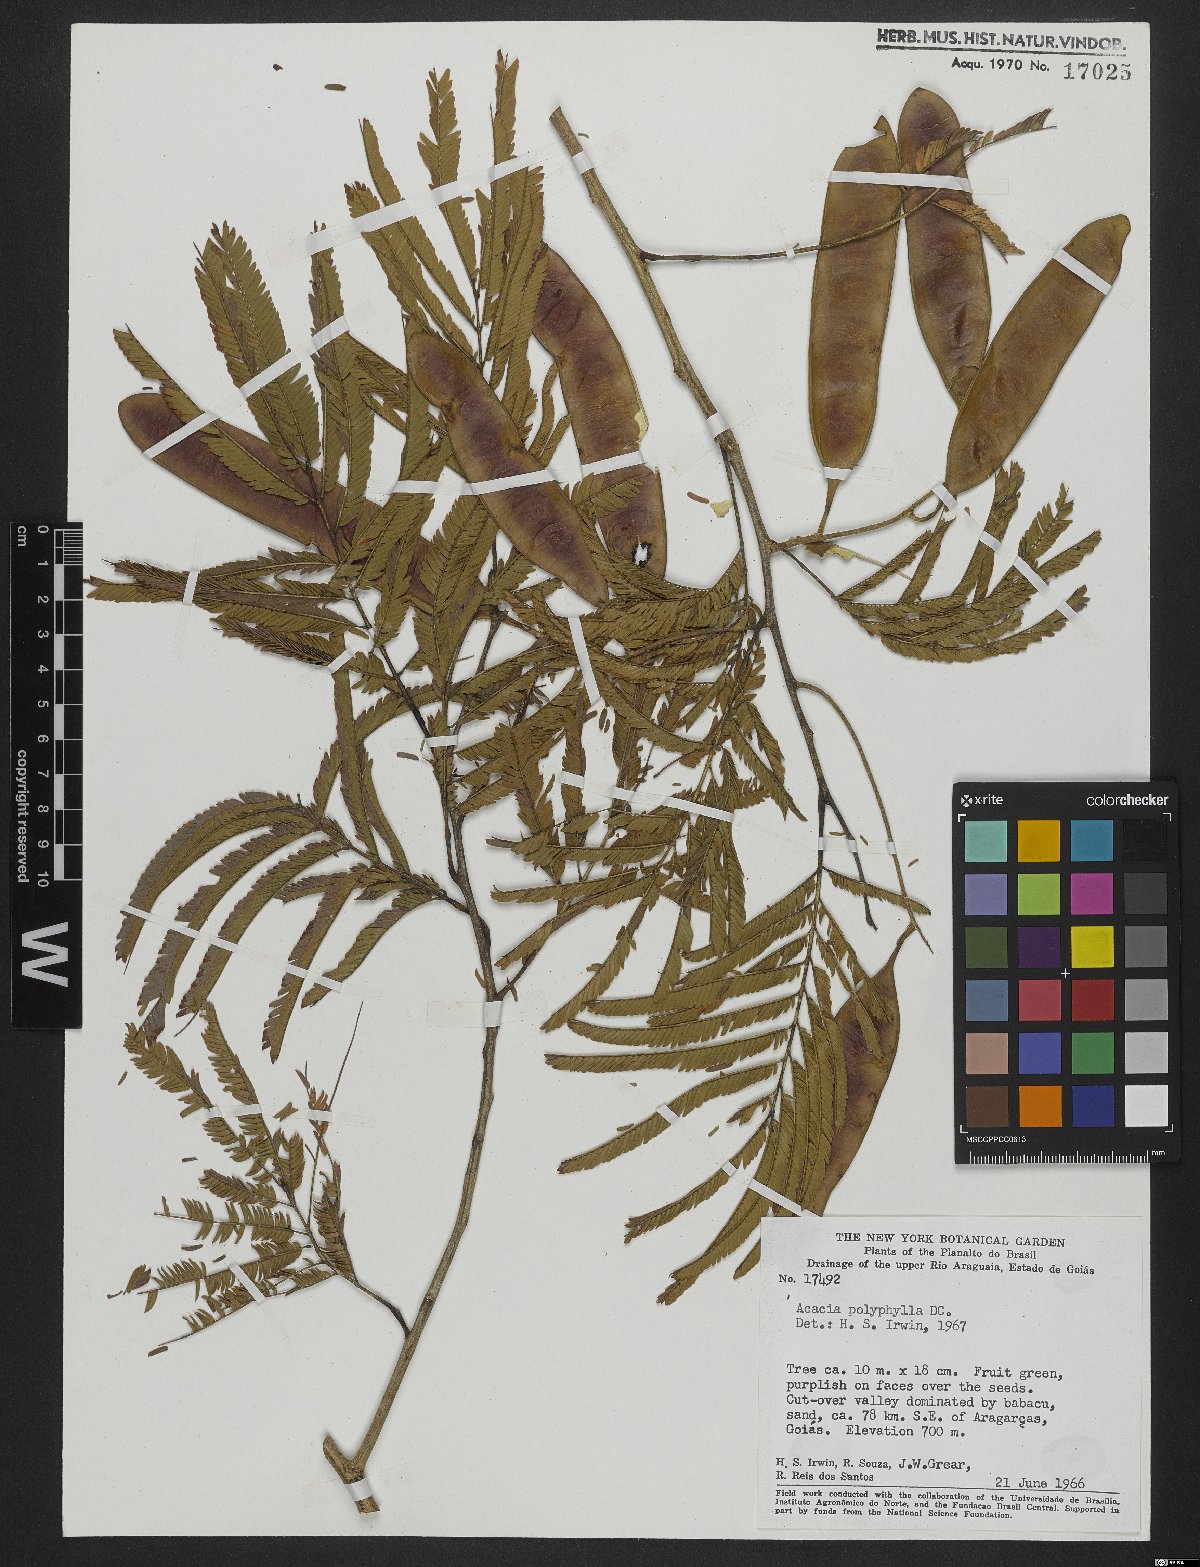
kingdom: Plantae
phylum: Tracheophyta
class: Magnoliopsida
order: Fabales
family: Fabaceae
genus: Senegalia
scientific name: Senegalia polyphylla
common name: White-tamarind
